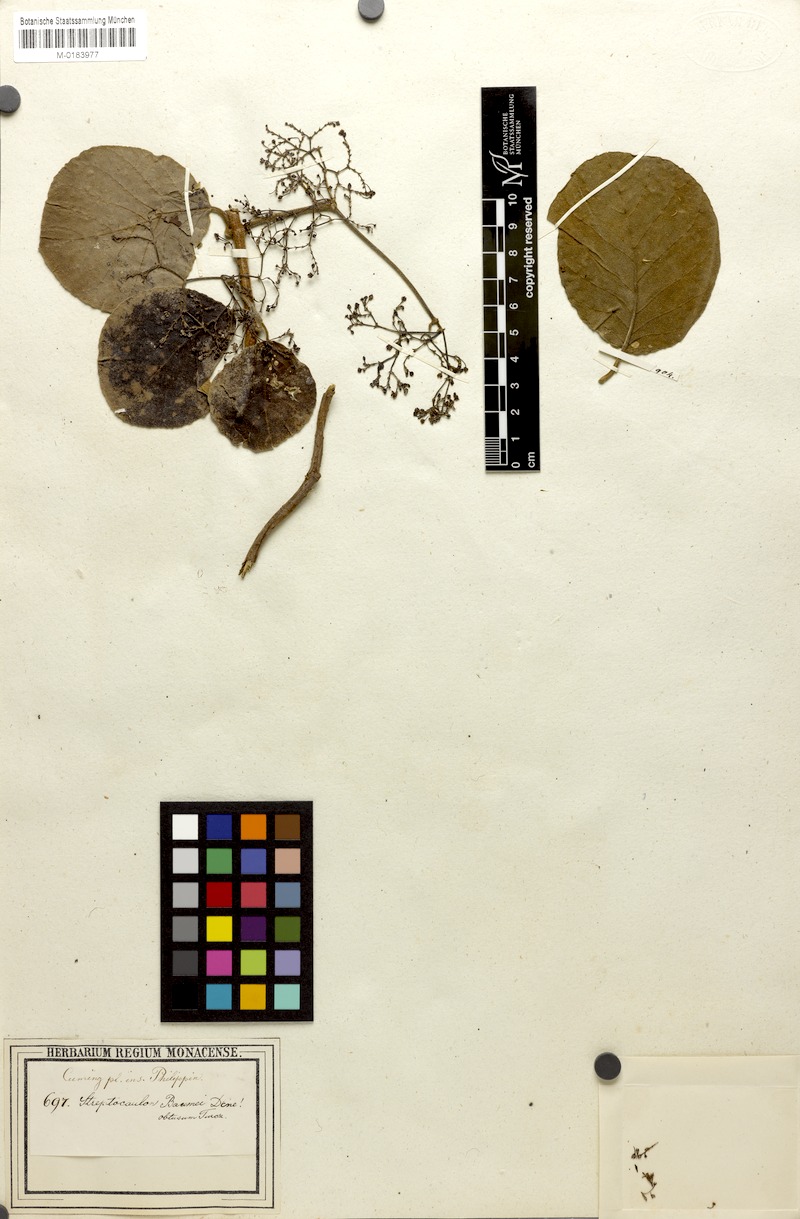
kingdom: Plantae
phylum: Tracheophyta
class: Magnoliopsida
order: Gentianales
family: Apocynaceae
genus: Streptocaulon
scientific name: Streptocaulon wallichii
